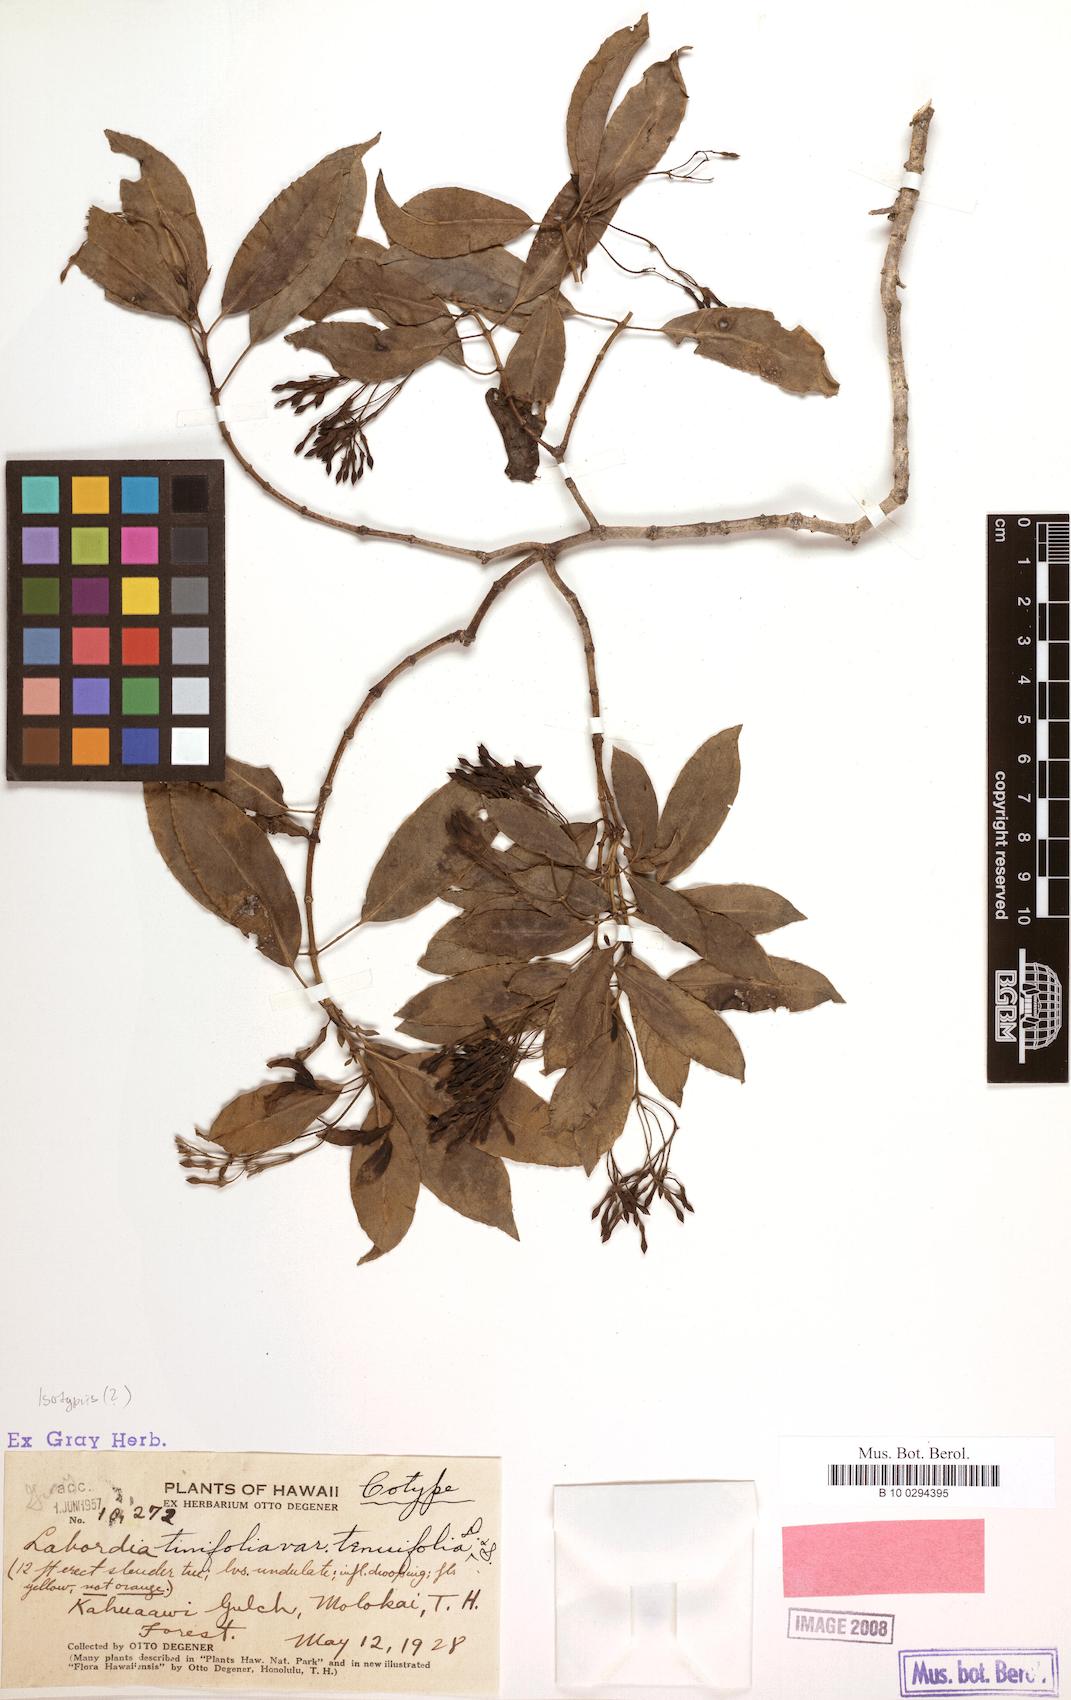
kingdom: Plantae
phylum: Tracheophyta
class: Magnoliopsida
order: Gentianales
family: Loganiaceae
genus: Geniostoma
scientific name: Geniostoma tinifolium
